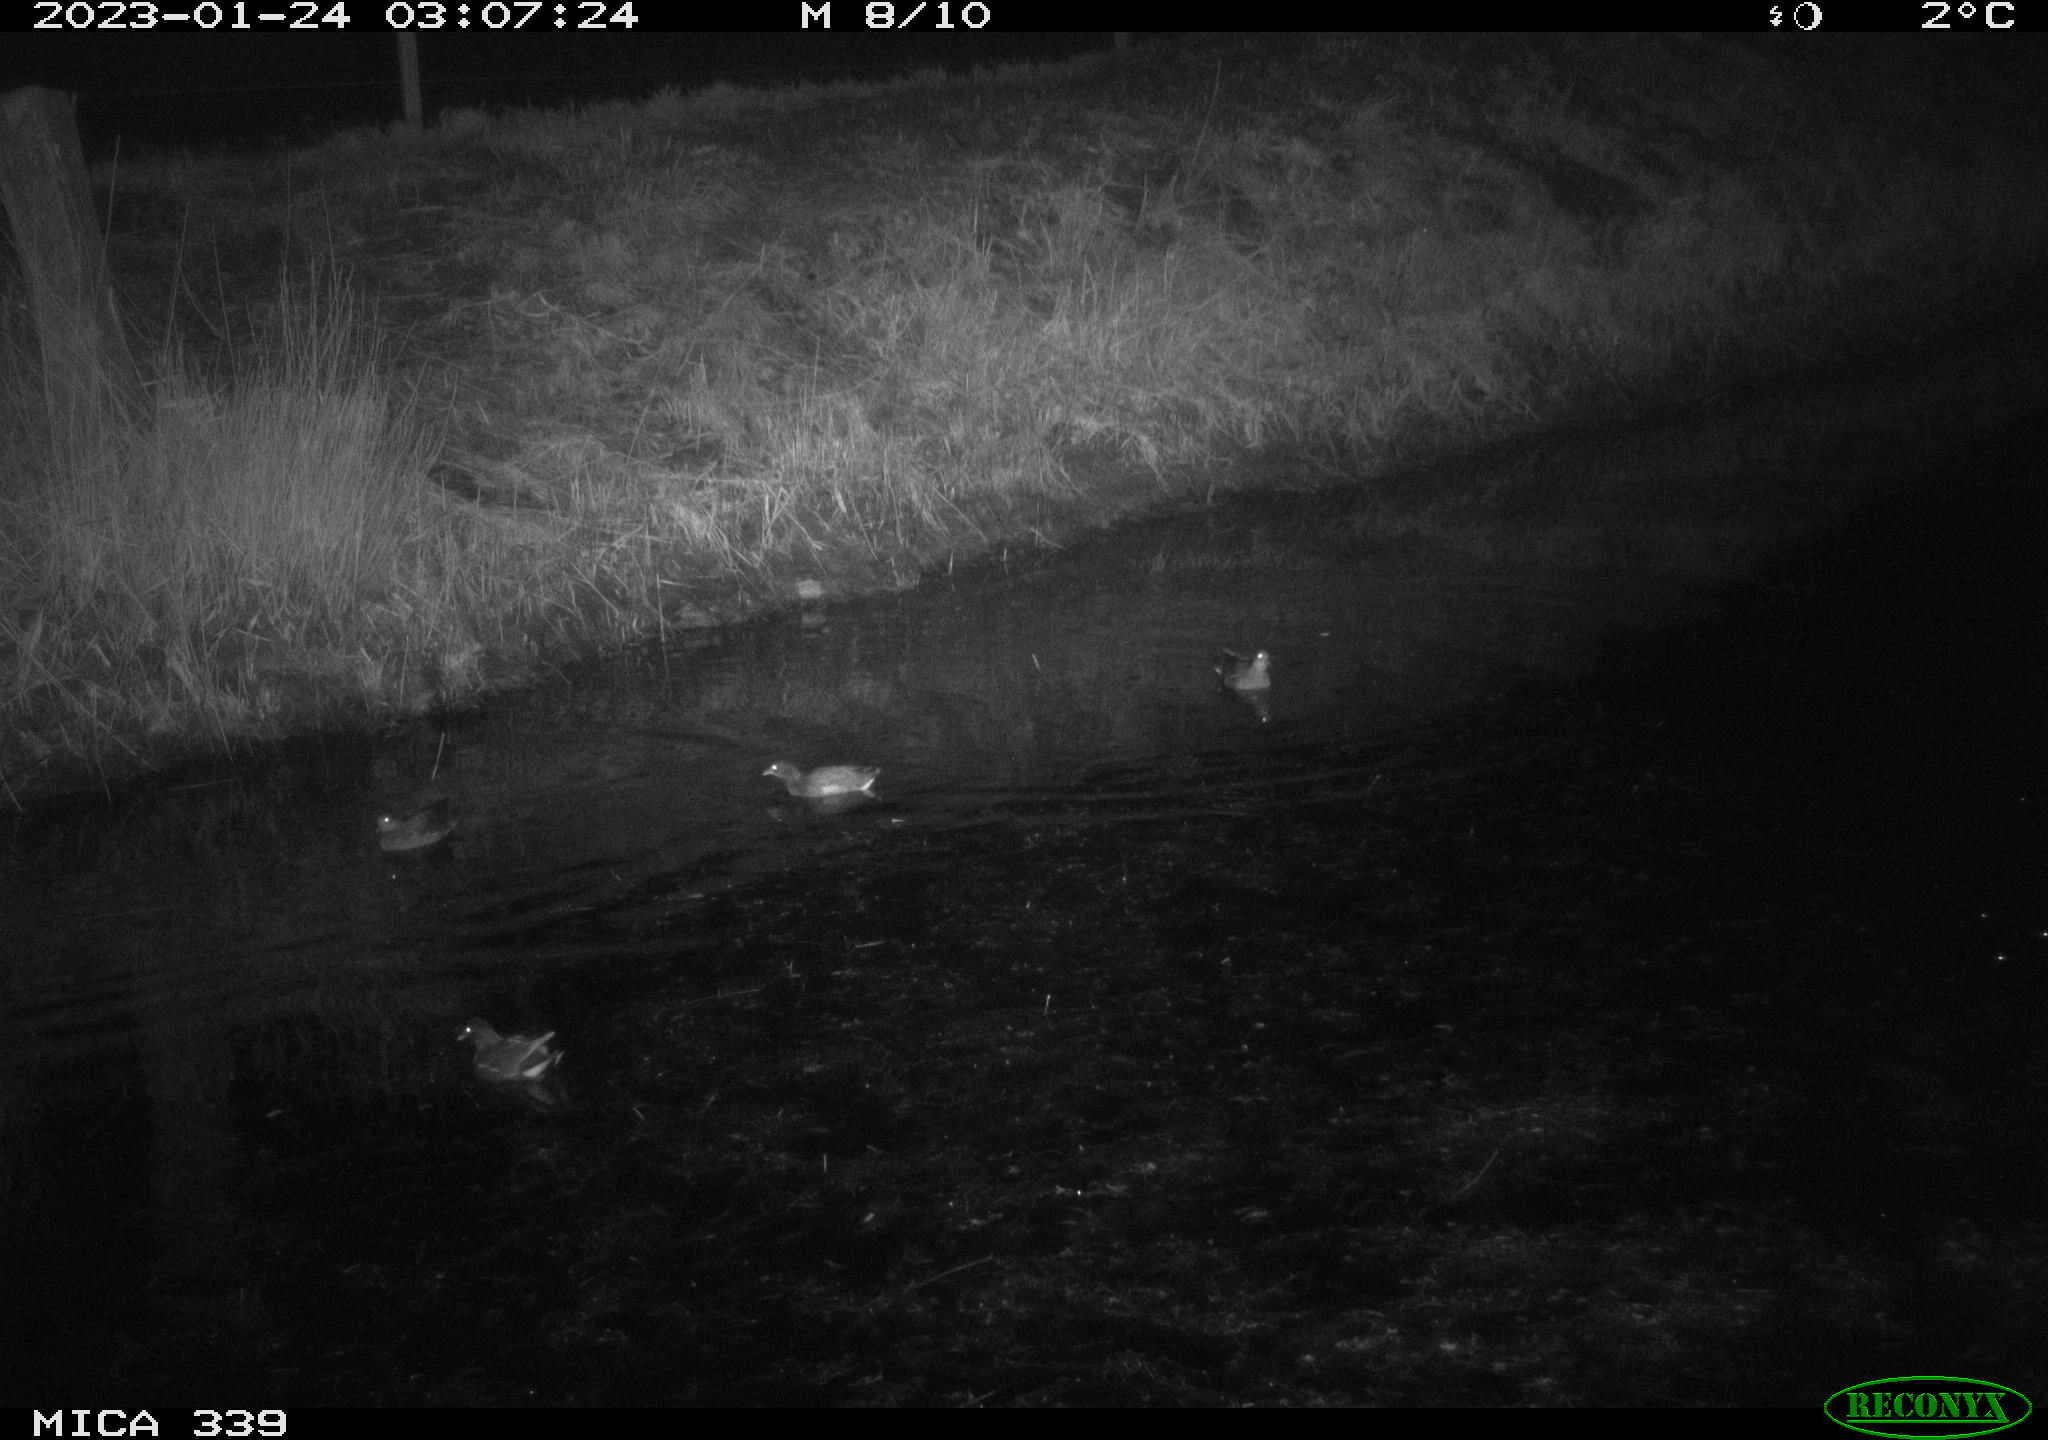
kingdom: Animalia
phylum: Chordata
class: Aves
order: Gruiformes
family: Rallidae
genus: Gallinula
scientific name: Gallinula chloropus
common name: Common moorhen
